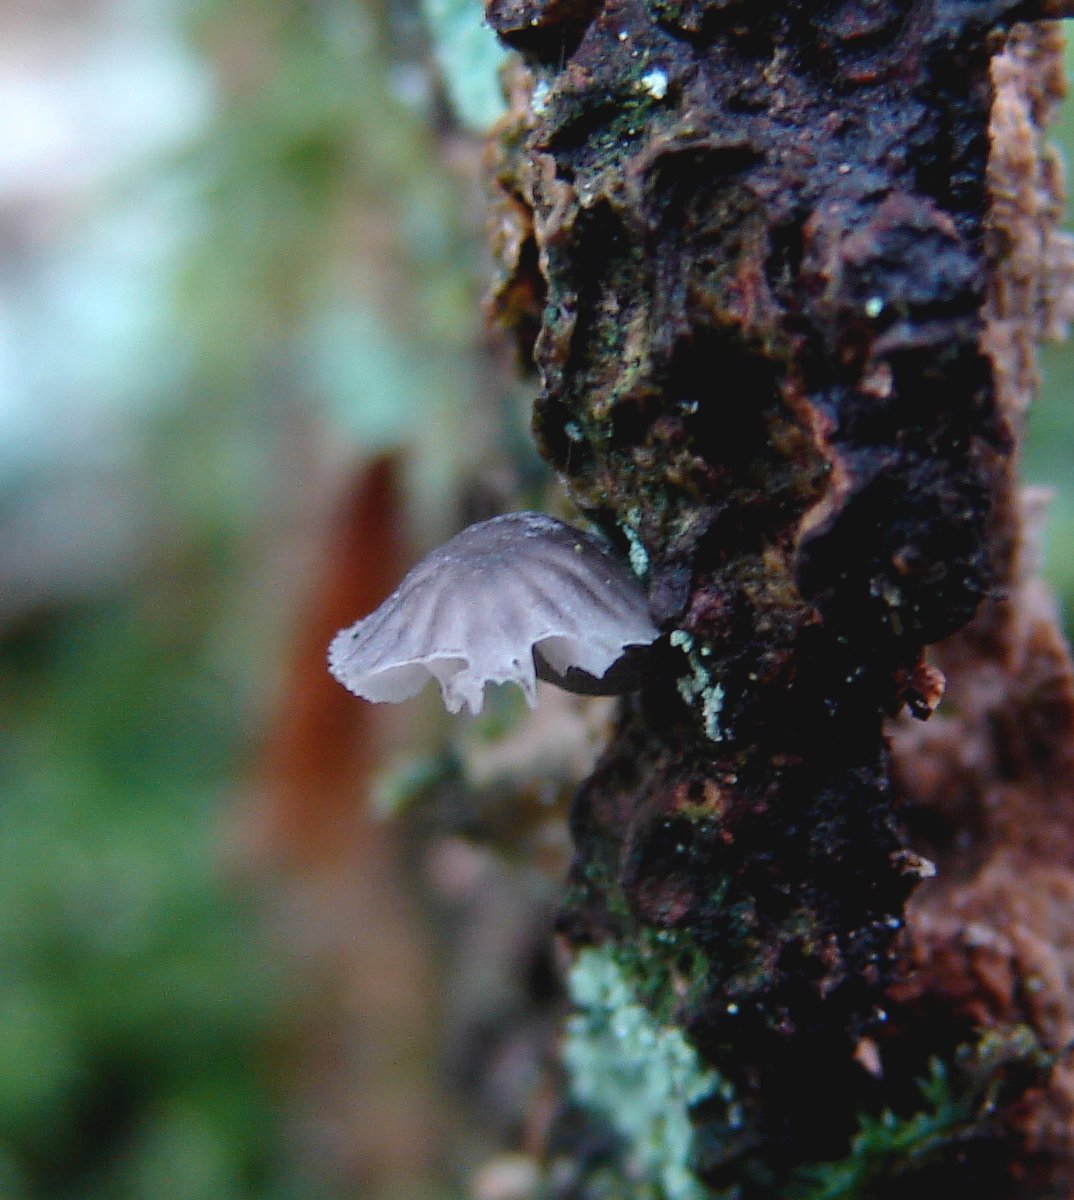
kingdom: Fungi
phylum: Basidiomycota
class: Agaricomycetes
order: Agaricales
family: Mycenaceae
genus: Mycena
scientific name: Mycena pseudocorticola
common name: gråblå bark-huesvamp
